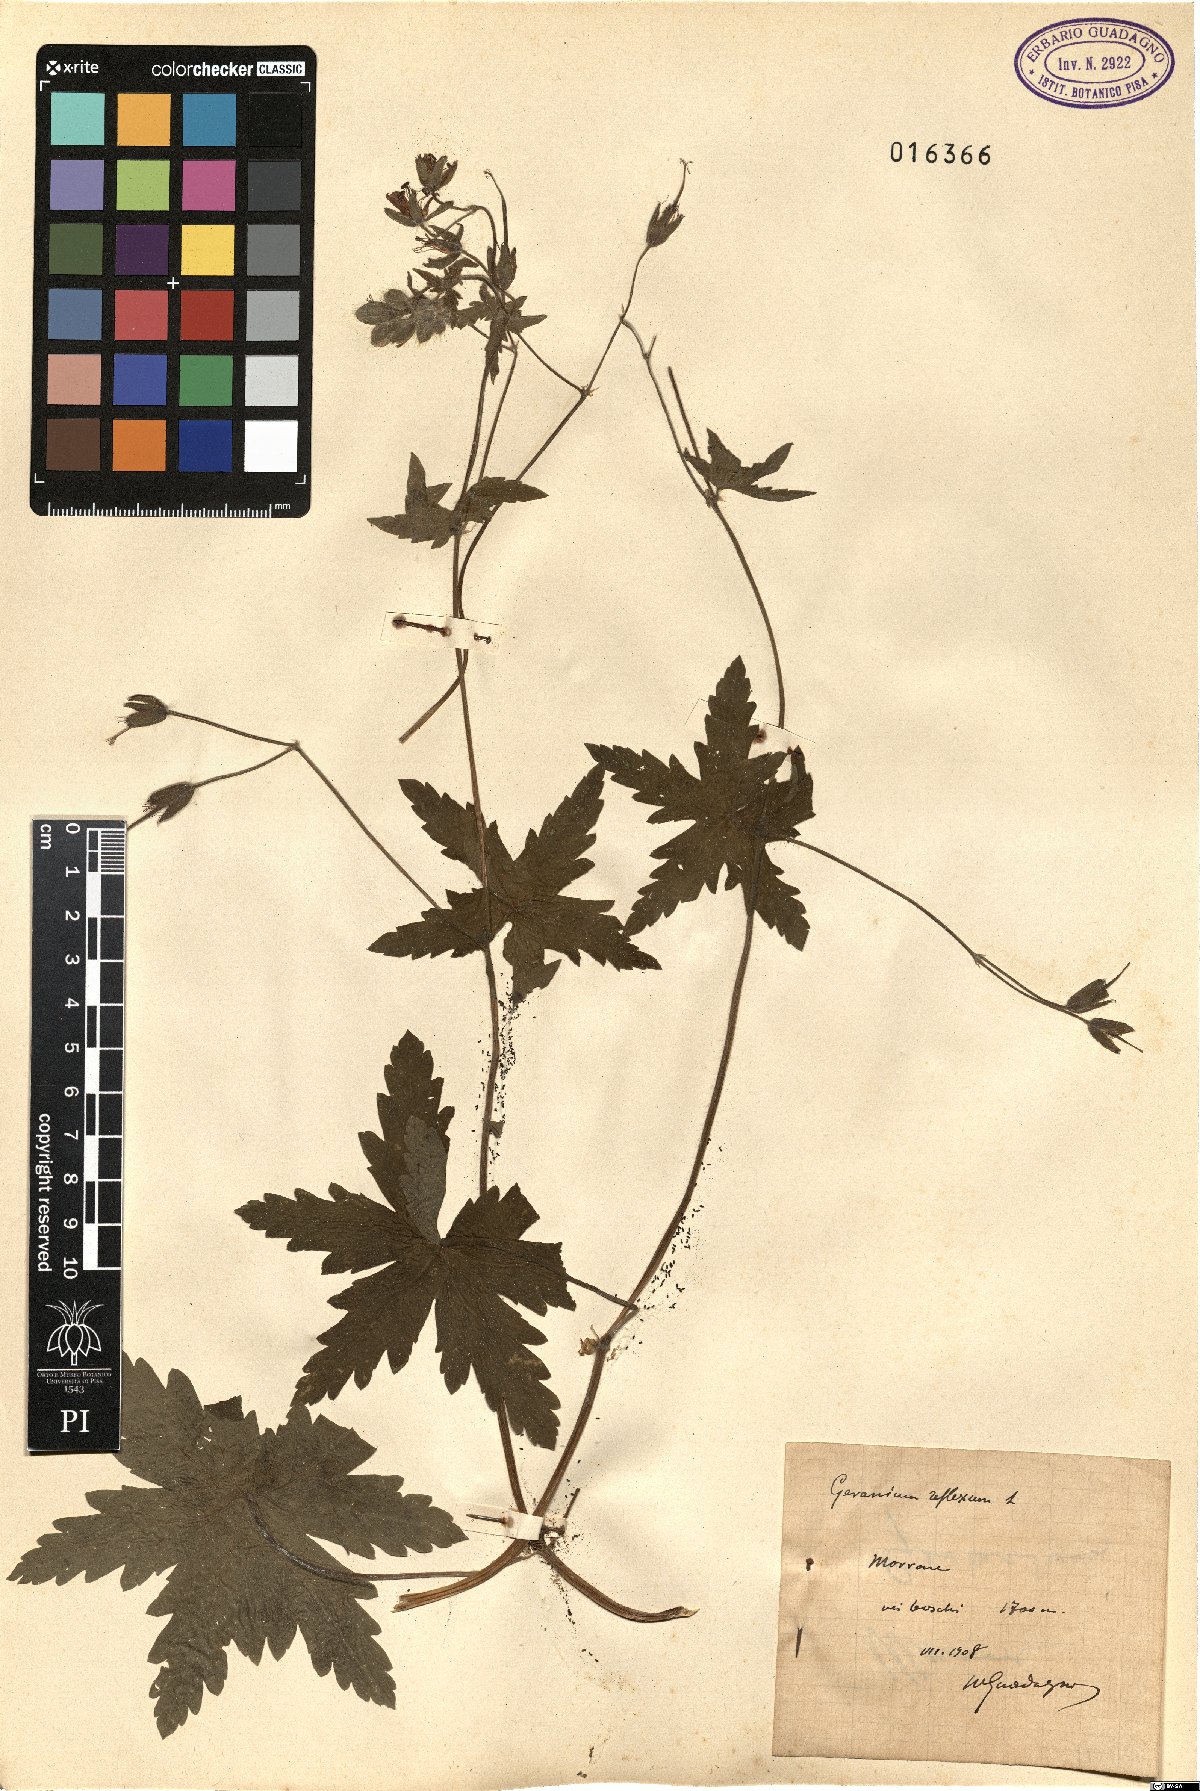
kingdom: Plantae
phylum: Tracheophyta
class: Magnoliopsida
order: Geraniales
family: Geraniaceae
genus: Geranium
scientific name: Geranium reflexum
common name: Reflexed crane's-bill
